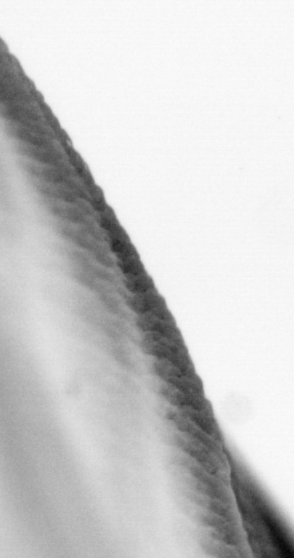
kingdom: Animalia
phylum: Chordata
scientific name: Chordata
